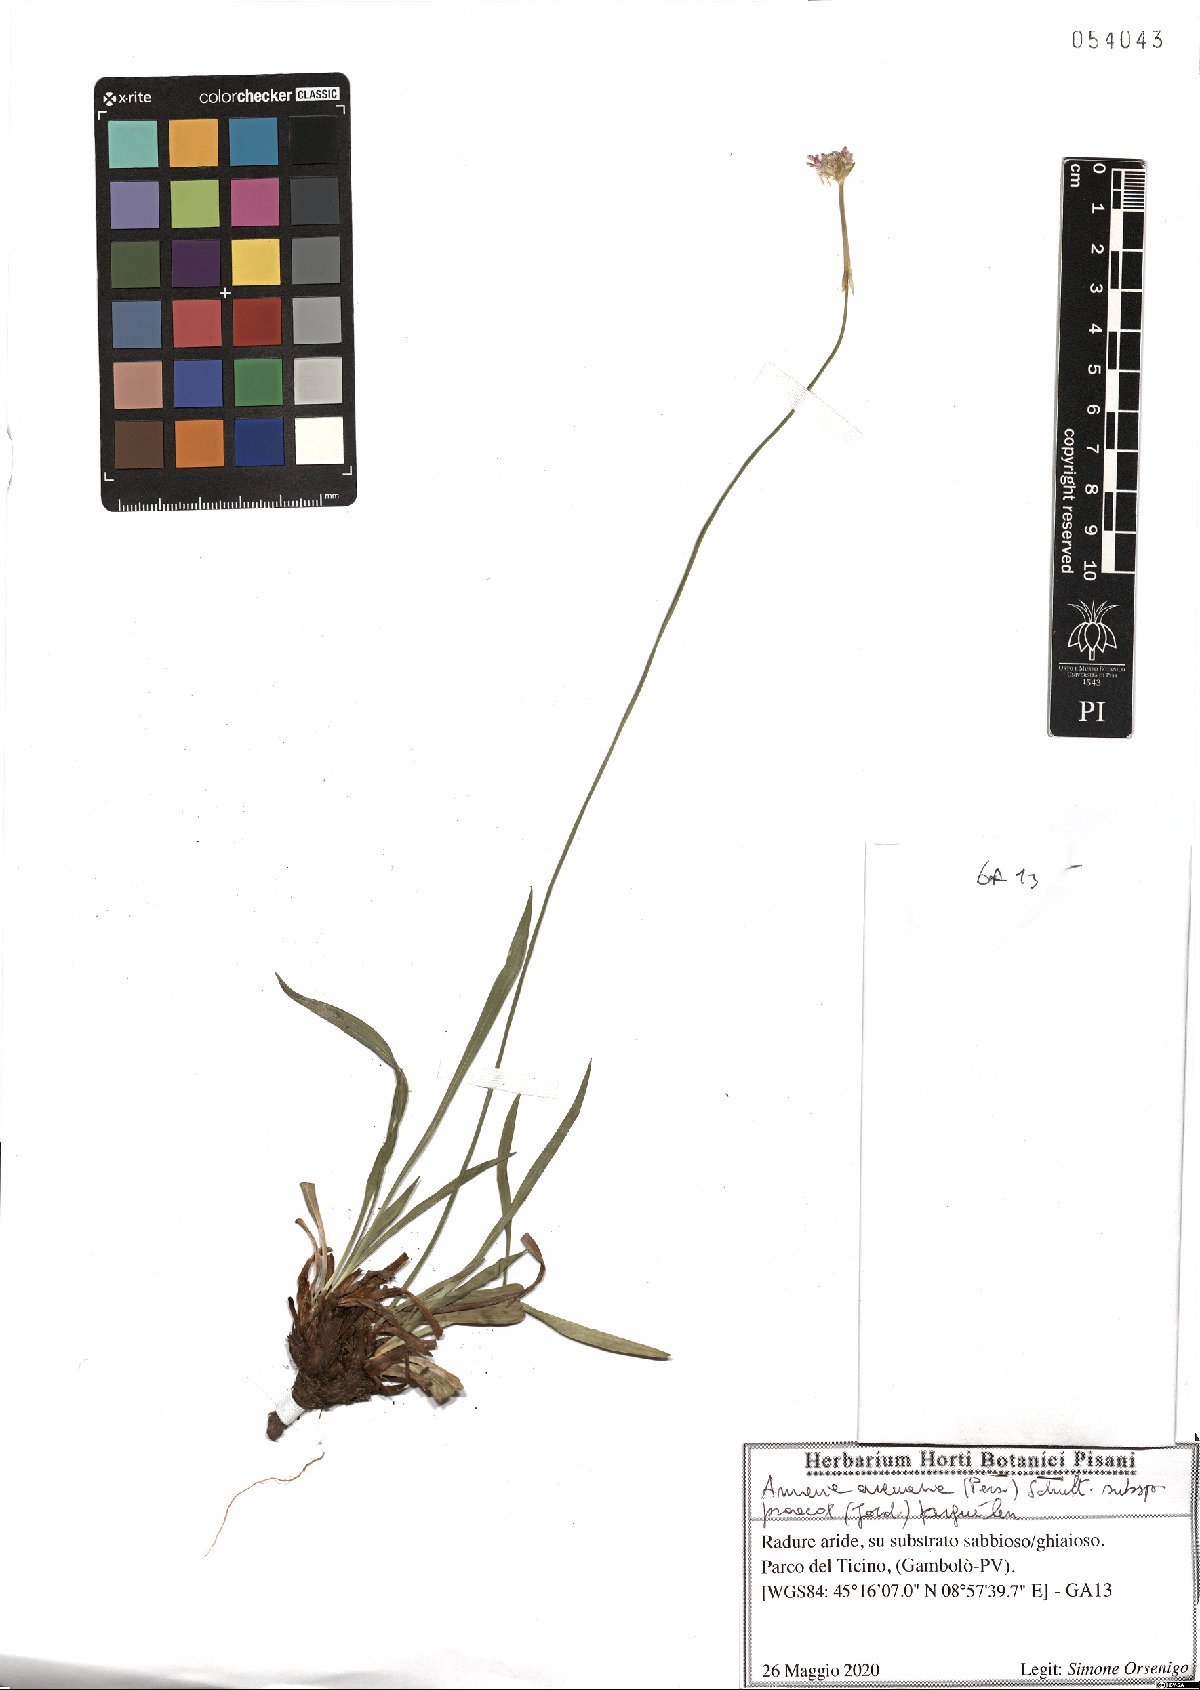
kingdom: Plantae
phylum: Tracheophyta
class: Magnoliopsida
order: Caryophyllales
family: Plumbaginaceae
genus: Armeria
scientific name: Armeria arenaria
